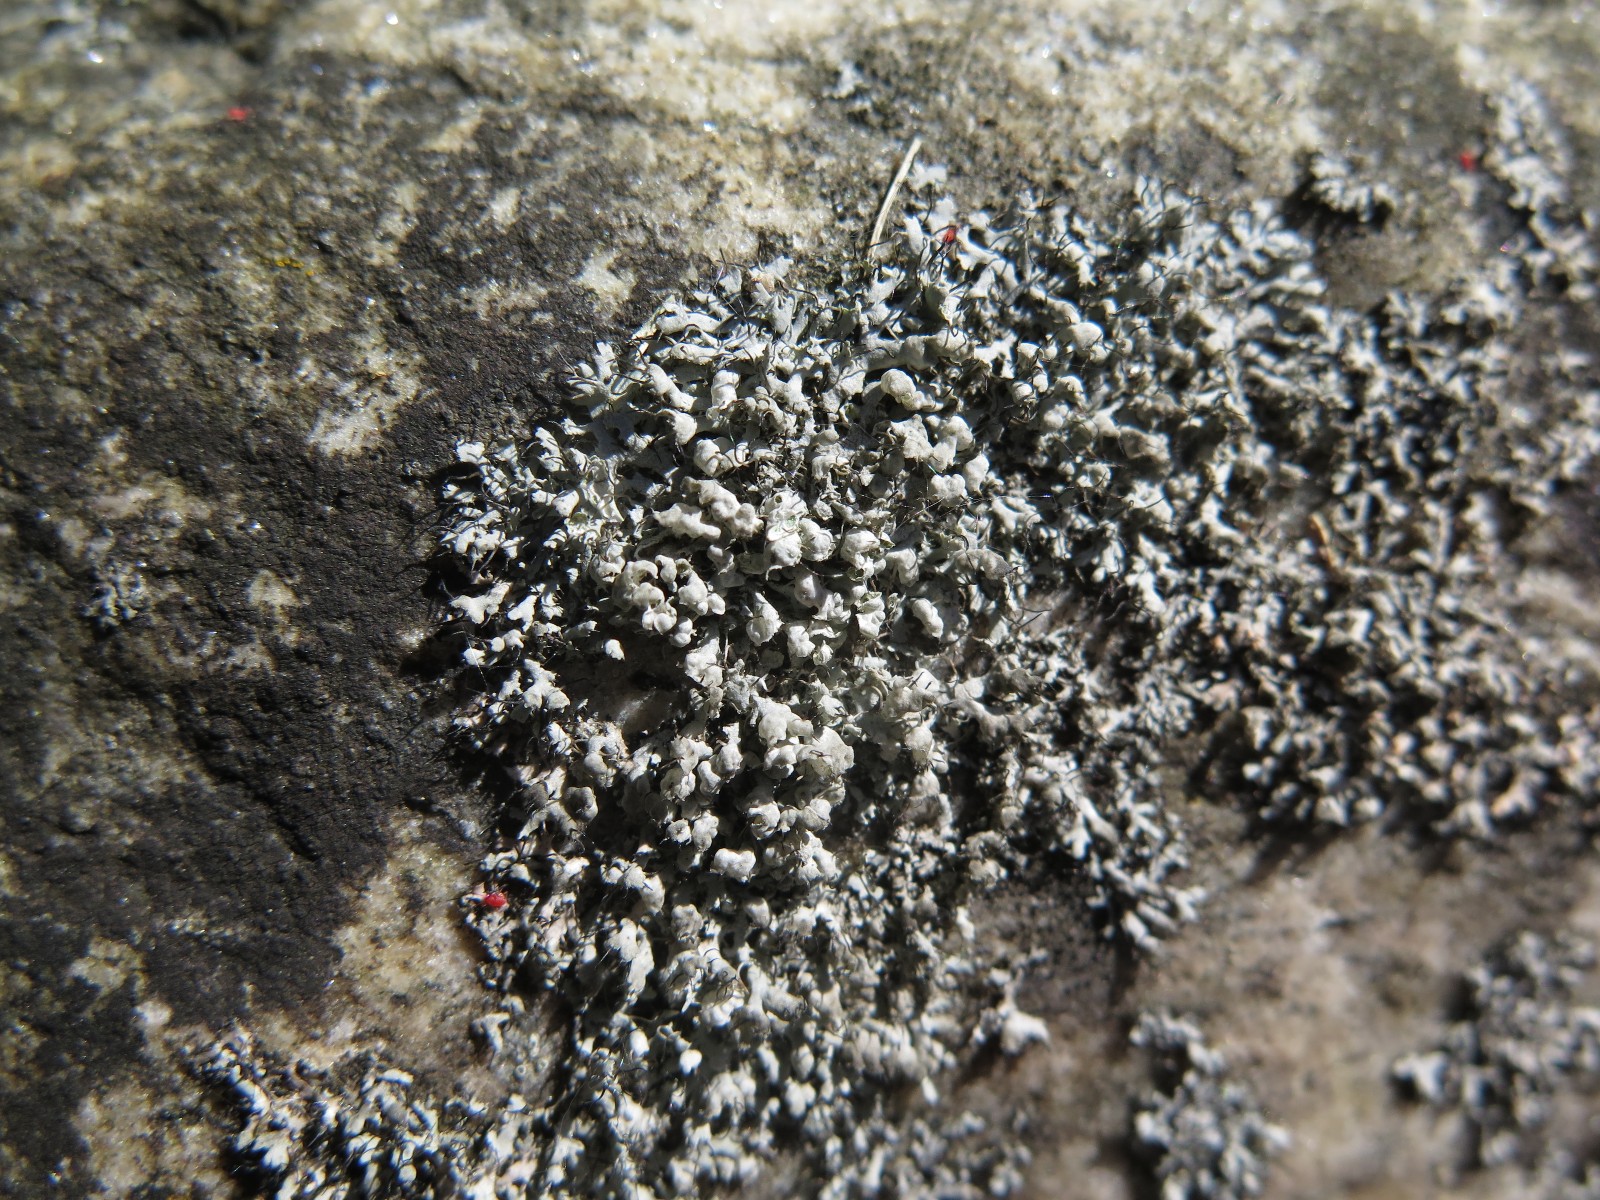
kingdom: Fungi
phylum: Ascomycota
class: Lecanoromycetes
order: Caliciales
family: Physciaceae
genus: Physcia
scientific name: Physcia adscendens
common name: hætte-rosetlav
